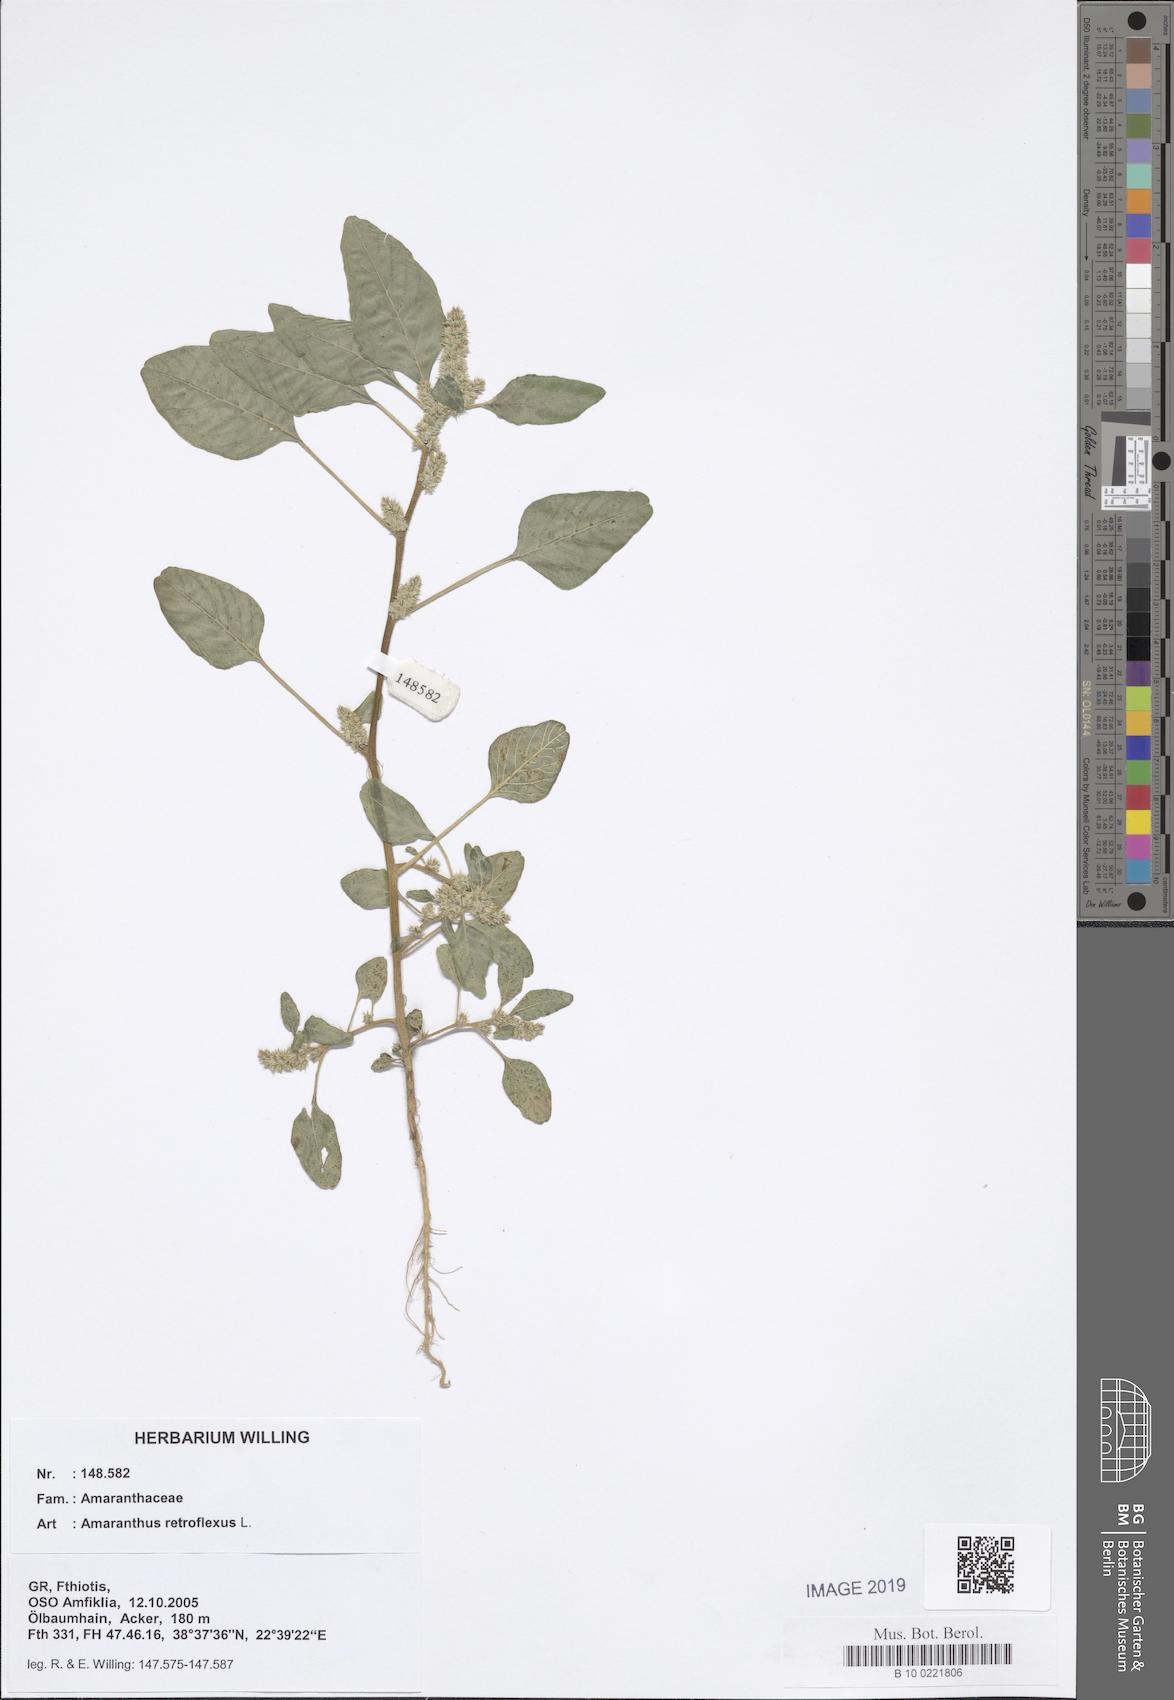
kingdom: Plantae
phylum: Tracheophyta
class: Magnoliopsida
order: Caryophyllales
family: Amaranthaceae
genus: Amaranthus
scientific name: Amaranthus retroflexus
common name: Redroot amaranth
